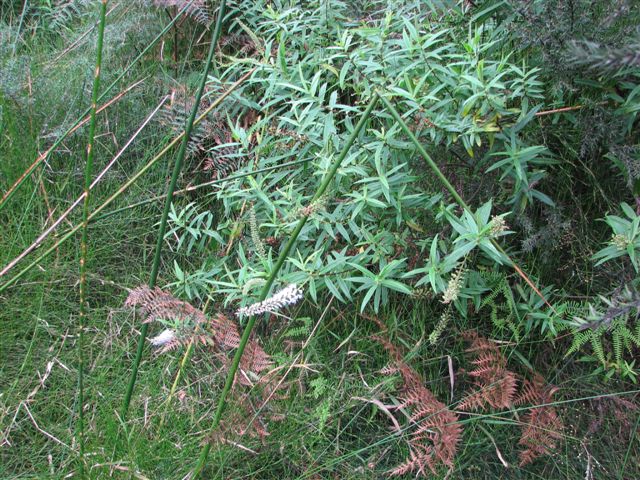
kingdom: Plantae
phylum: Tracheophyta
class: Magnoliopsida
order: Lamiales
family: Plantaginaceae
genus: Veronica
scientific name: Veronica
